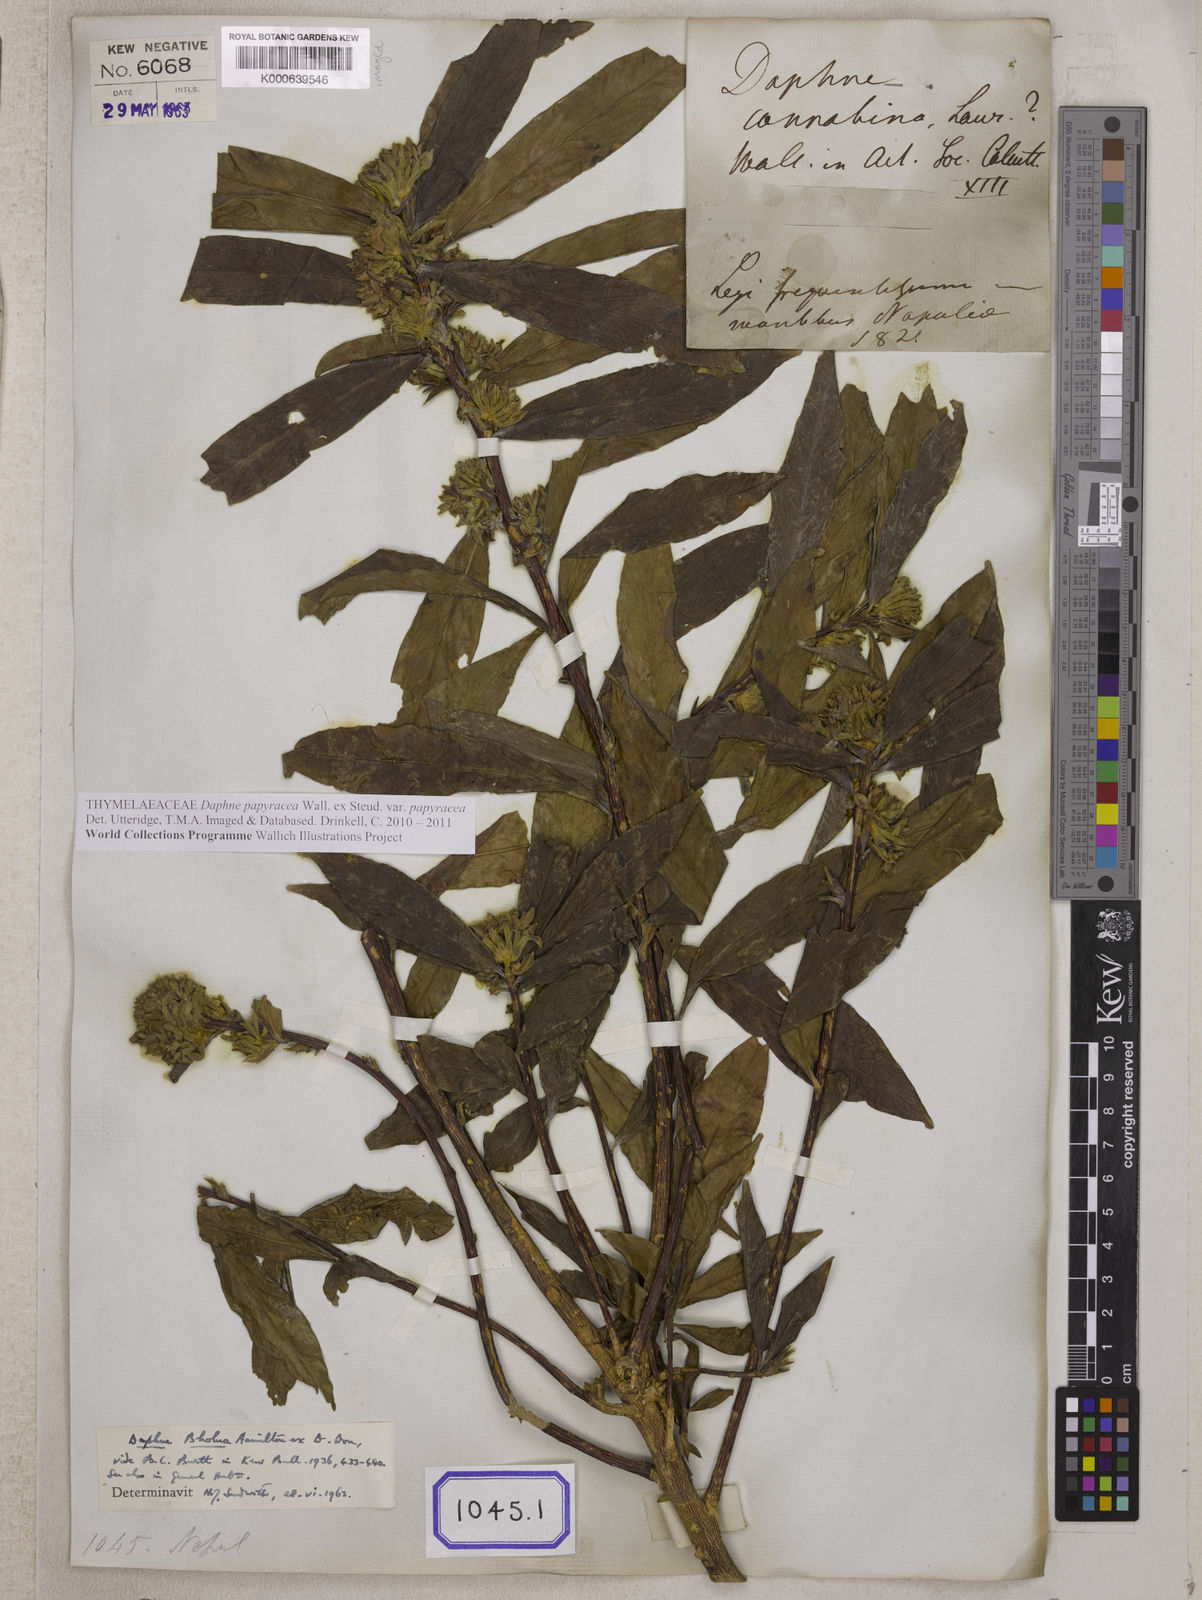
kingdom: Plantae
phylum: Tracheophyta
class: Magnoliopsida
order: Malvales
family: Thymelaeaceae
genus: Wikstroemia
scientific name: Wikstroemia indica
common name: Tiebush
